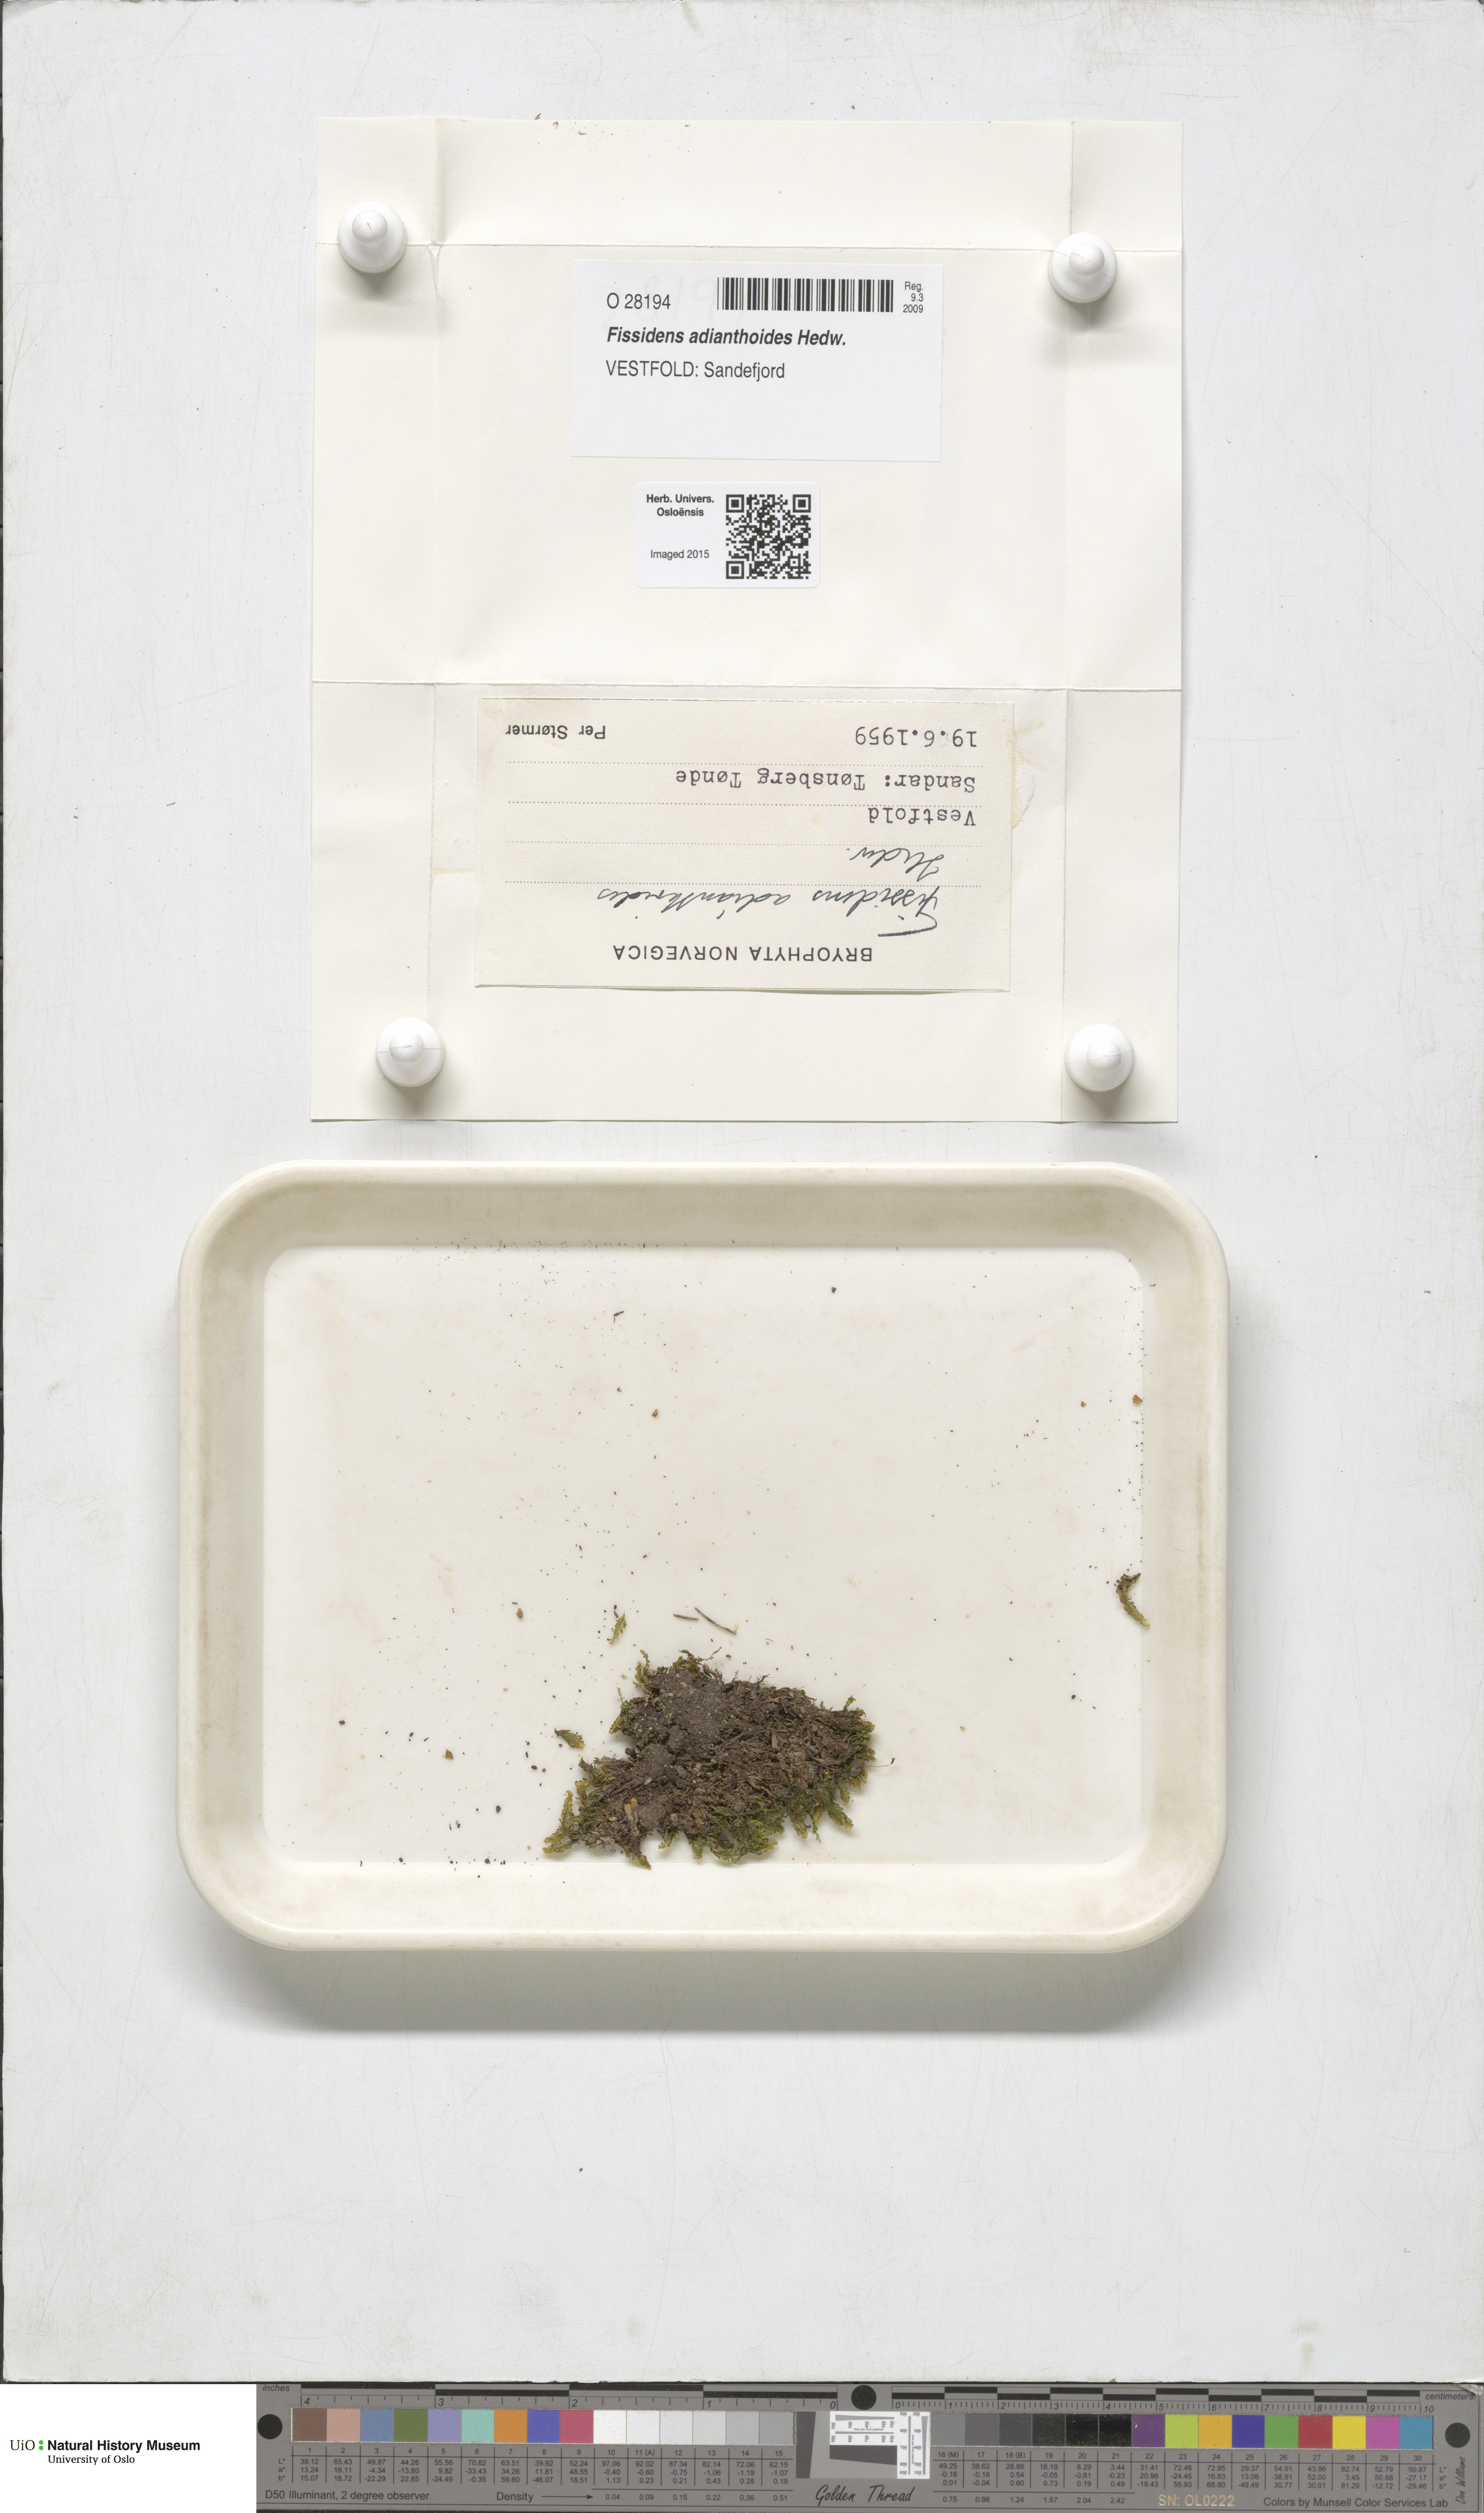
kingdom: Plantae
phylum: Bryophyta
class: Bryopsida
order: Dicranales
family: Fissidentaceae
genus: Fissidens
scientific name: Fissidens adianthoides
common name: Maidenhair pocket moss
